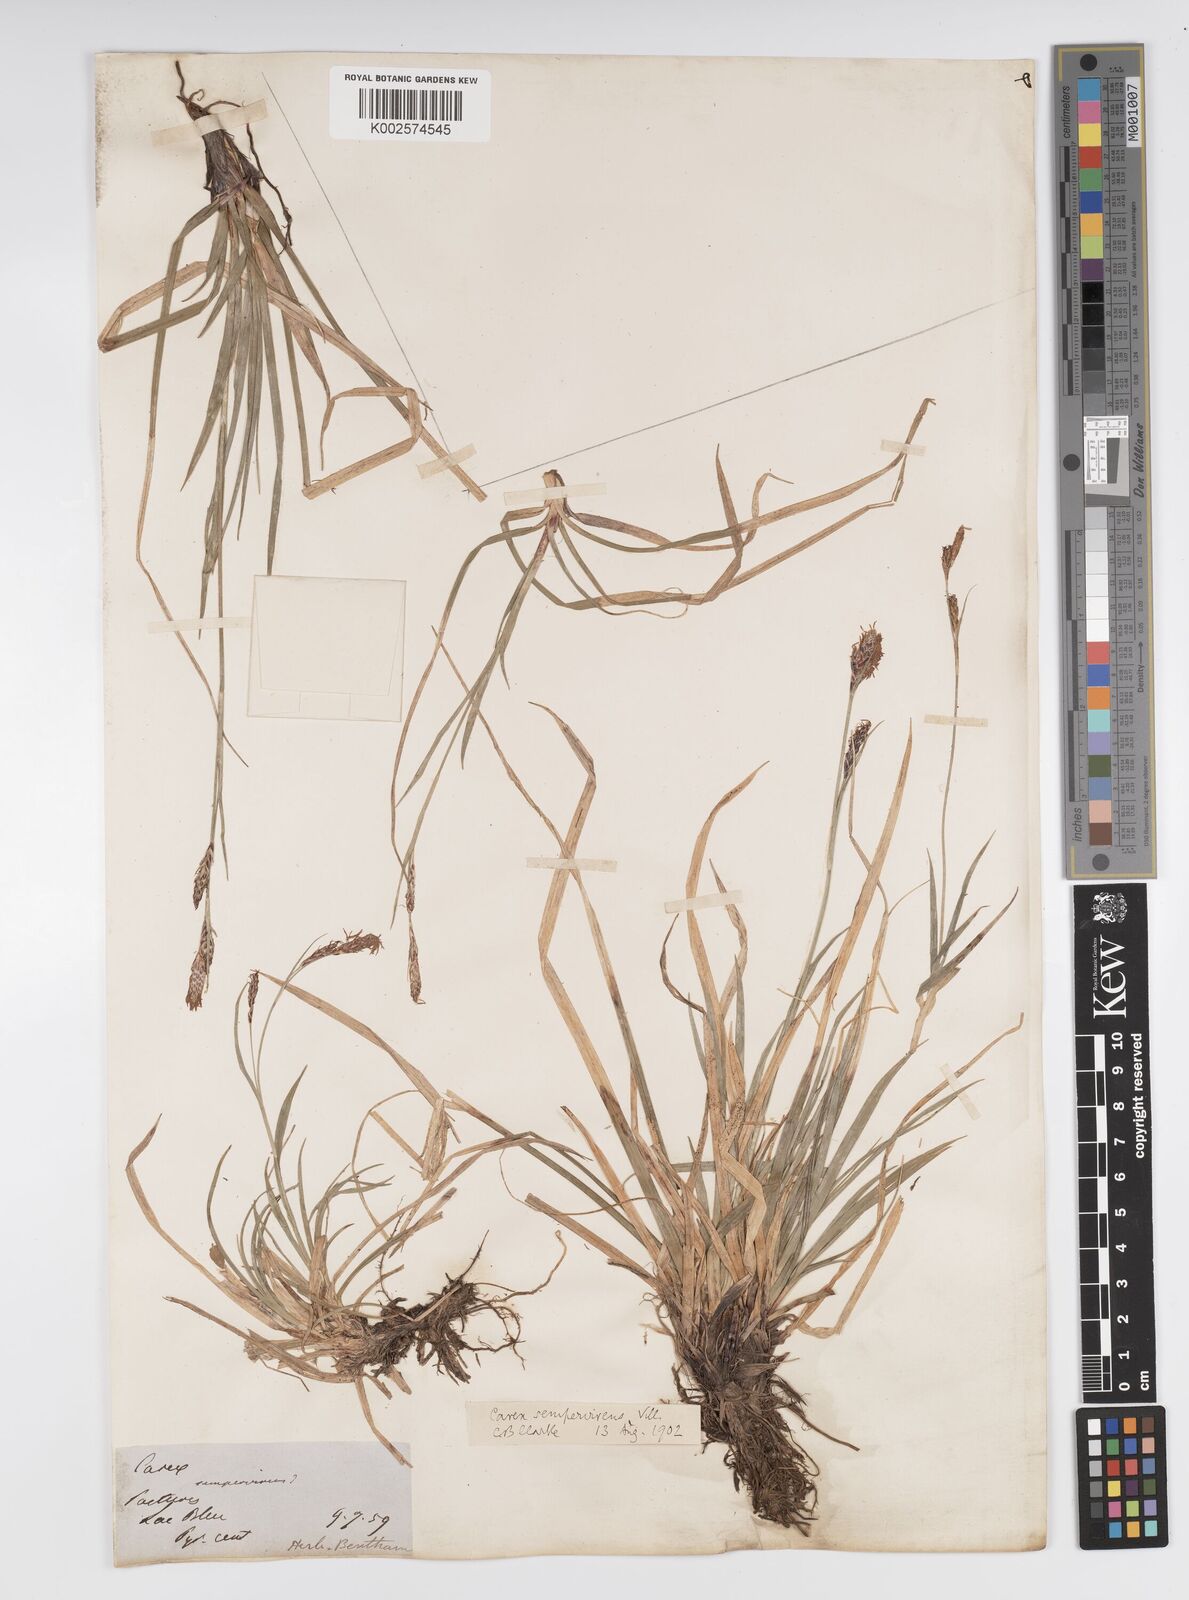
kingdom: Plantae
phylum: Tracheophyta
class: Liliopsida
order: Poales
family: Cyperaceae
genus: Carex
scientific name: Carex sempervirens
